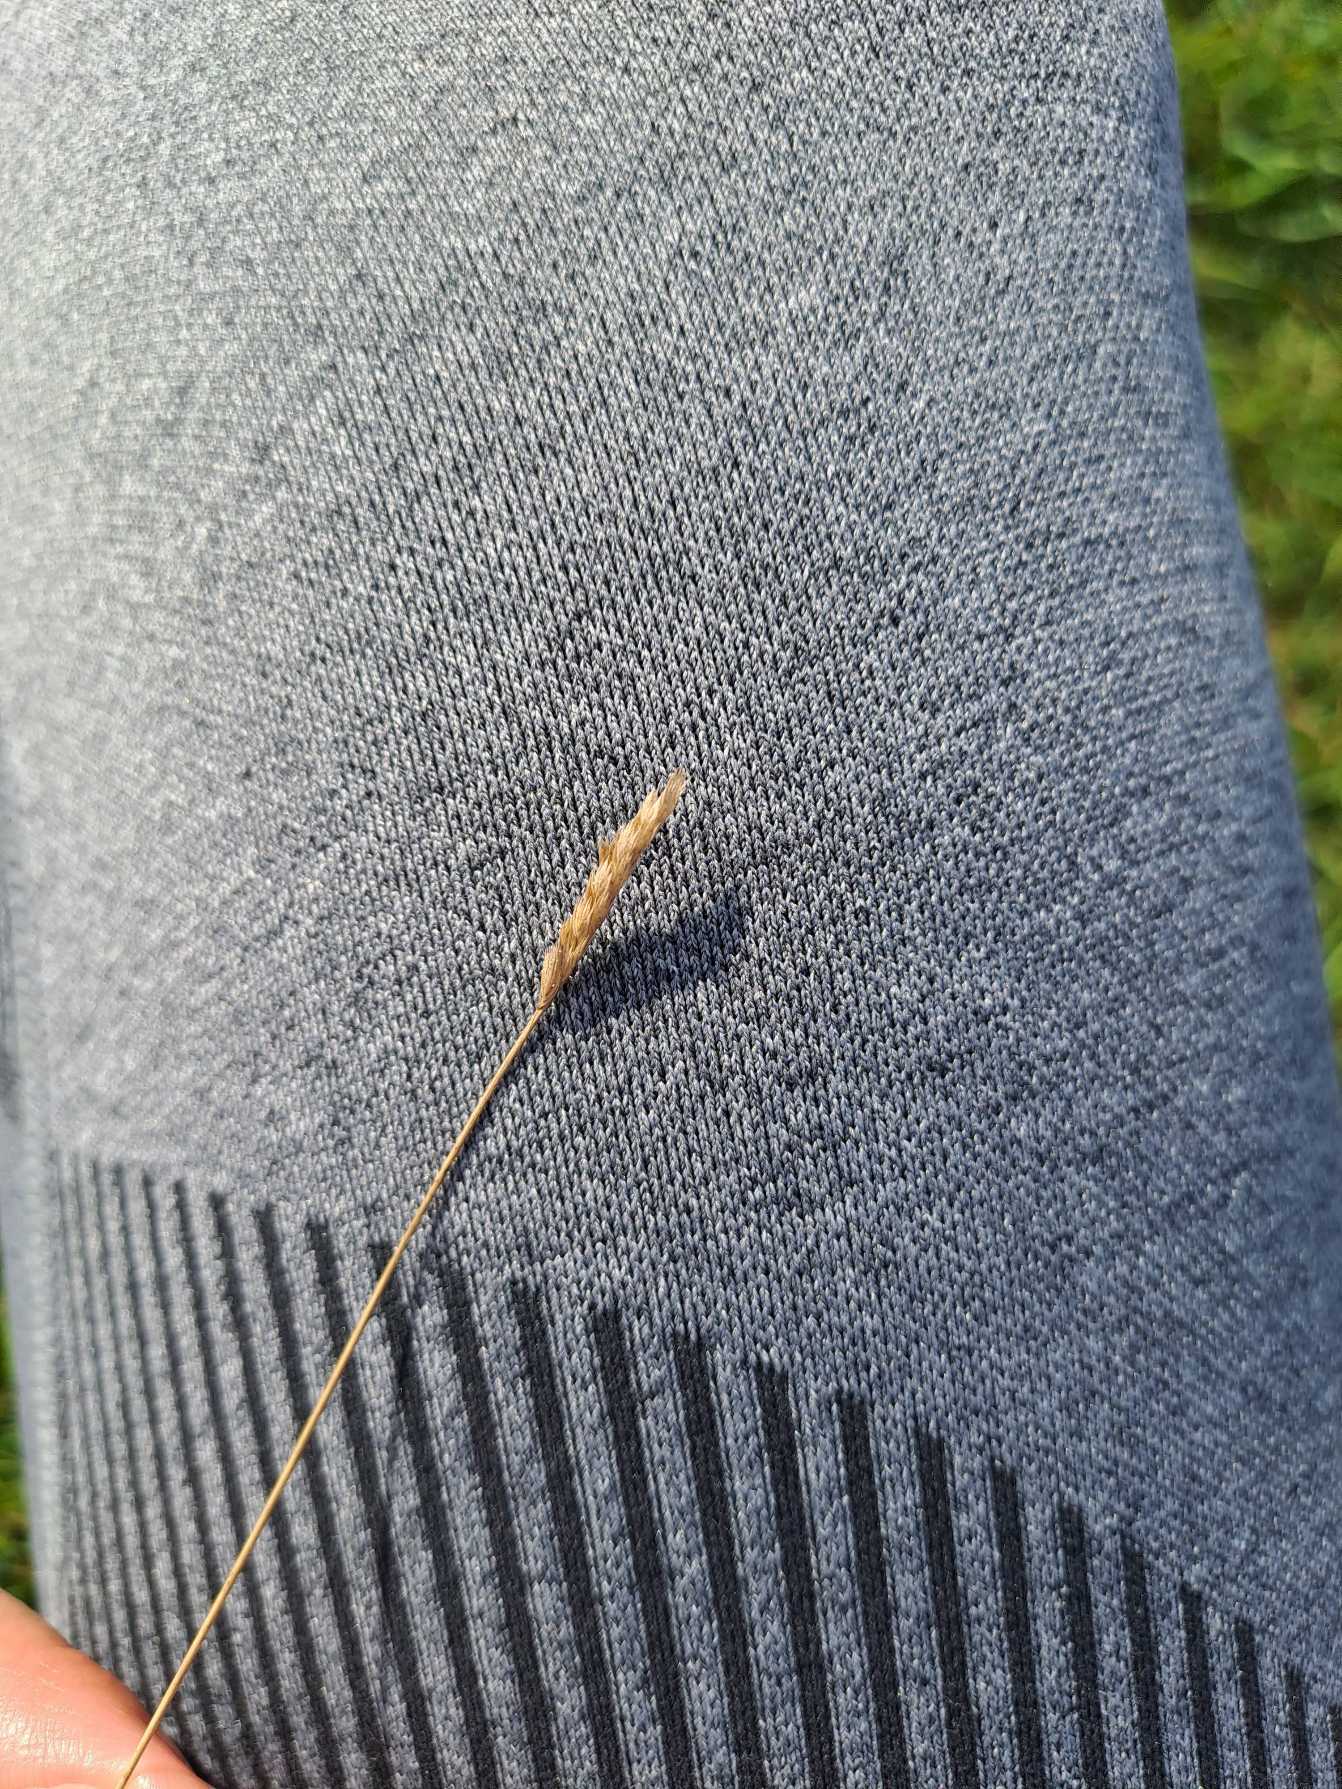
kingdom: Plantae
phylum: Tracheophyta
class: Liliopsida
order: Poales
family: Poaceae
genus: Cynosurus
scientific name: Cynosurus cristatus
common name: Kamgræs
